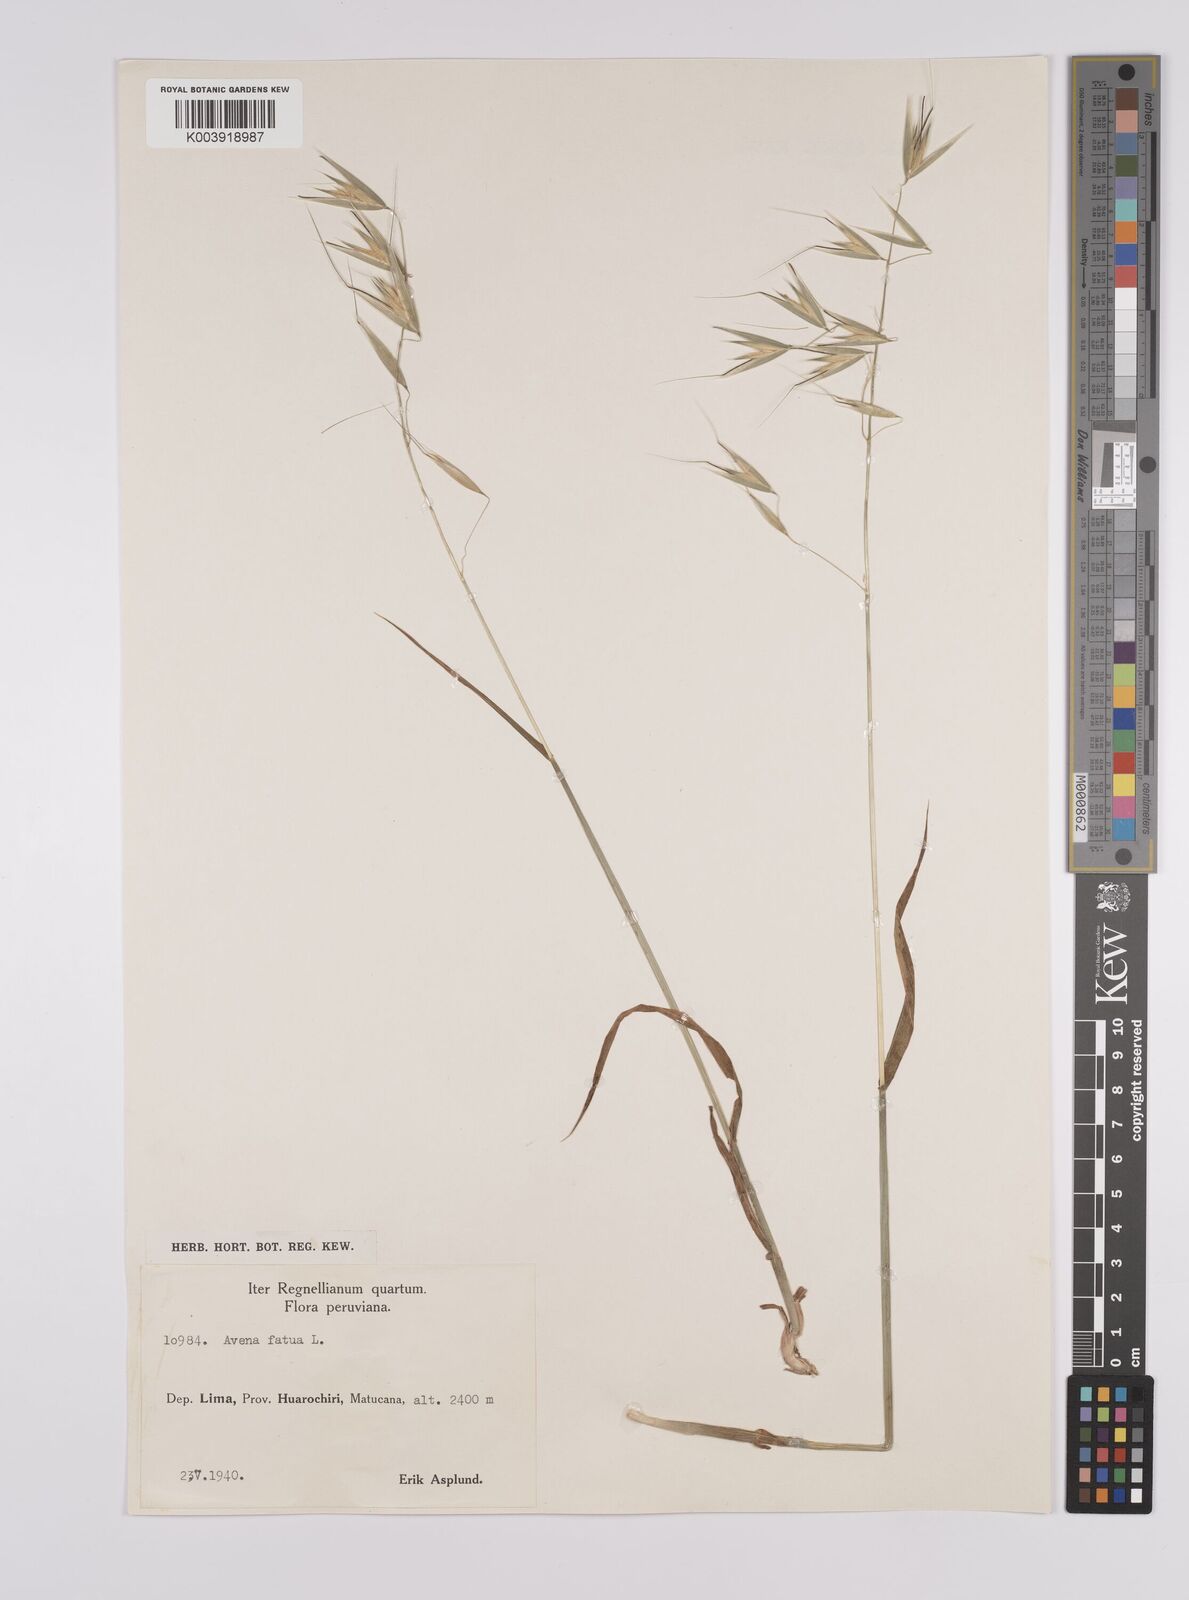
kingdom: Plantae
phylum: Tracheophyta
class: Liliopsida
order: Poales
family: Poaceae
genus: Avena
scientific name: Avena fatua
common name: Wild oat
